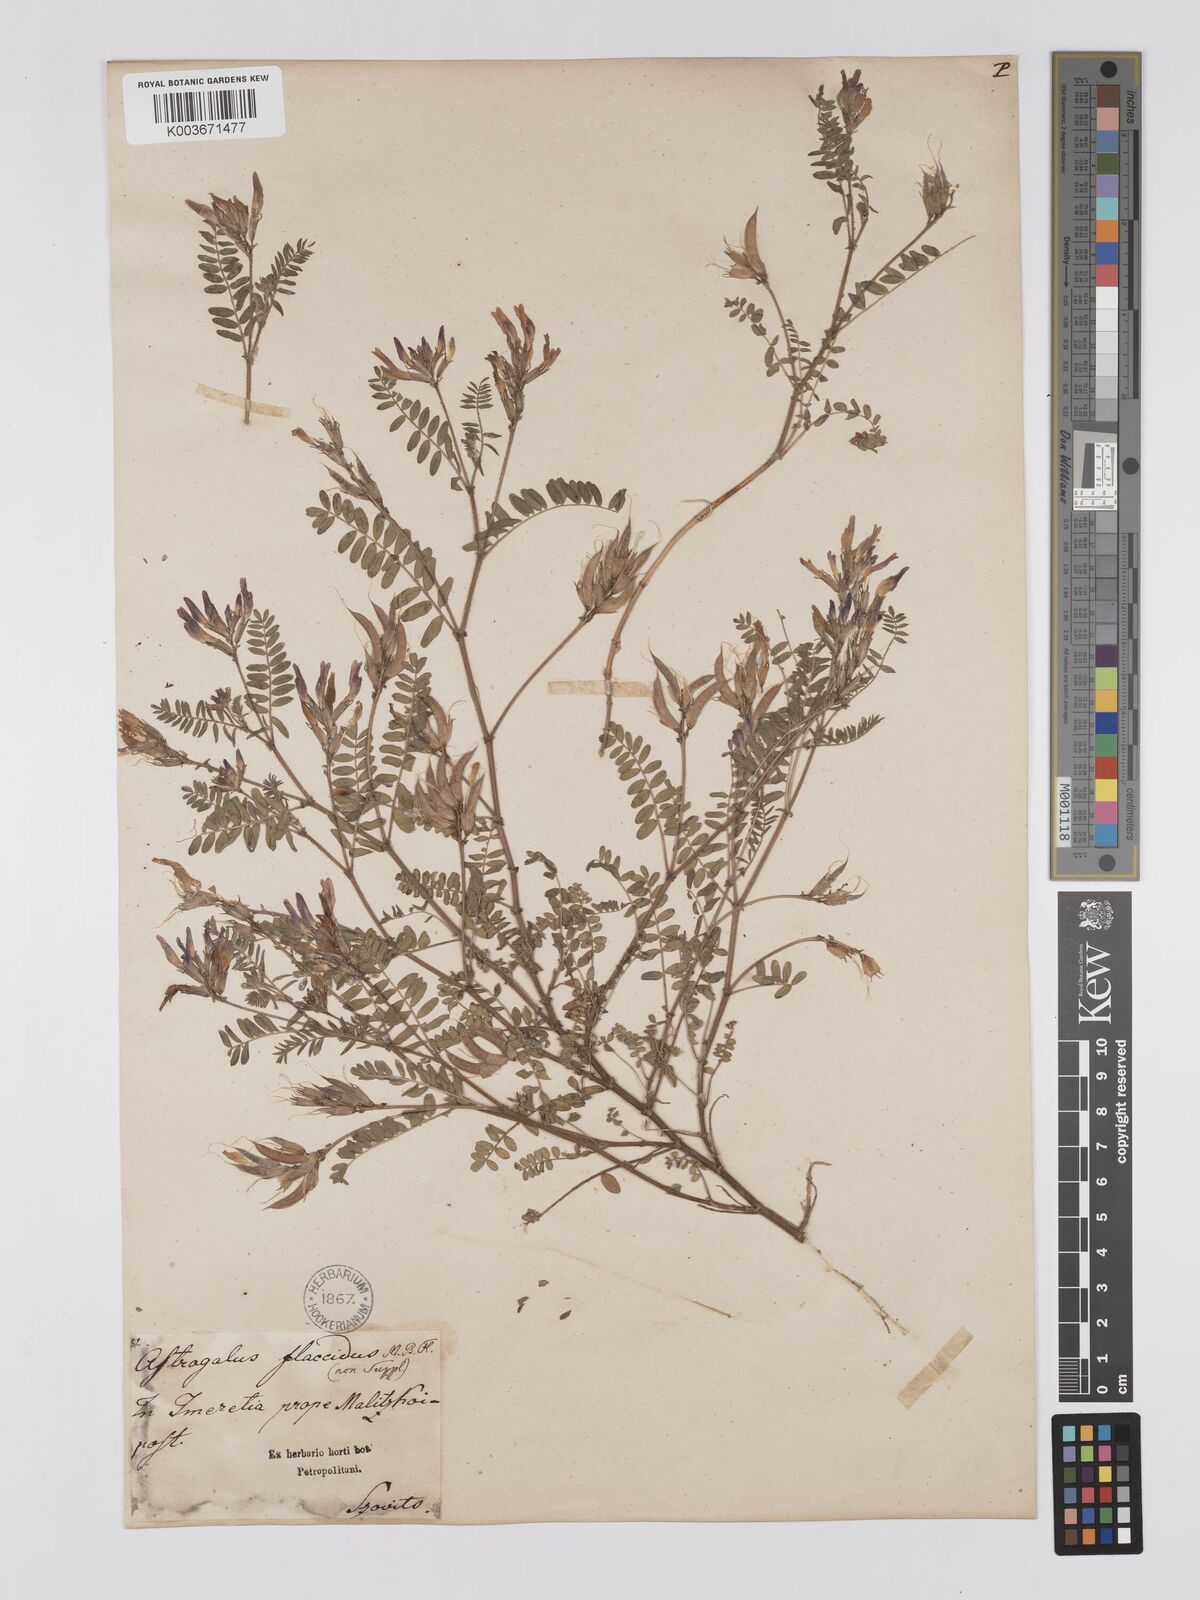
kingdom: Plantae
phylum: Tracheophyta
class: Magnoliopsida
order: Fabales
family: Fabaceae
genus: Astragalus
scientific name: Astragalus humifusus
